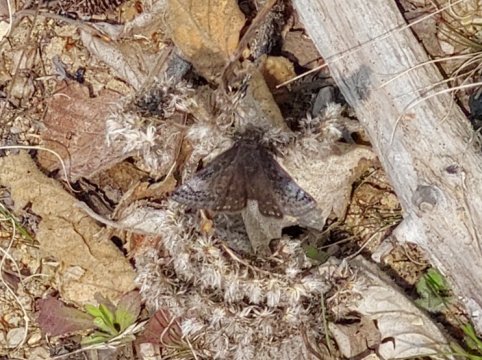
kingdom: Animalia
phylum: Arthropoda
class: Insecta
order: Lepidoptera
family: Hesperiidae
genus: Erynnis
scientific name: Erynnis icelus
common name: Dreamy Duskywing
